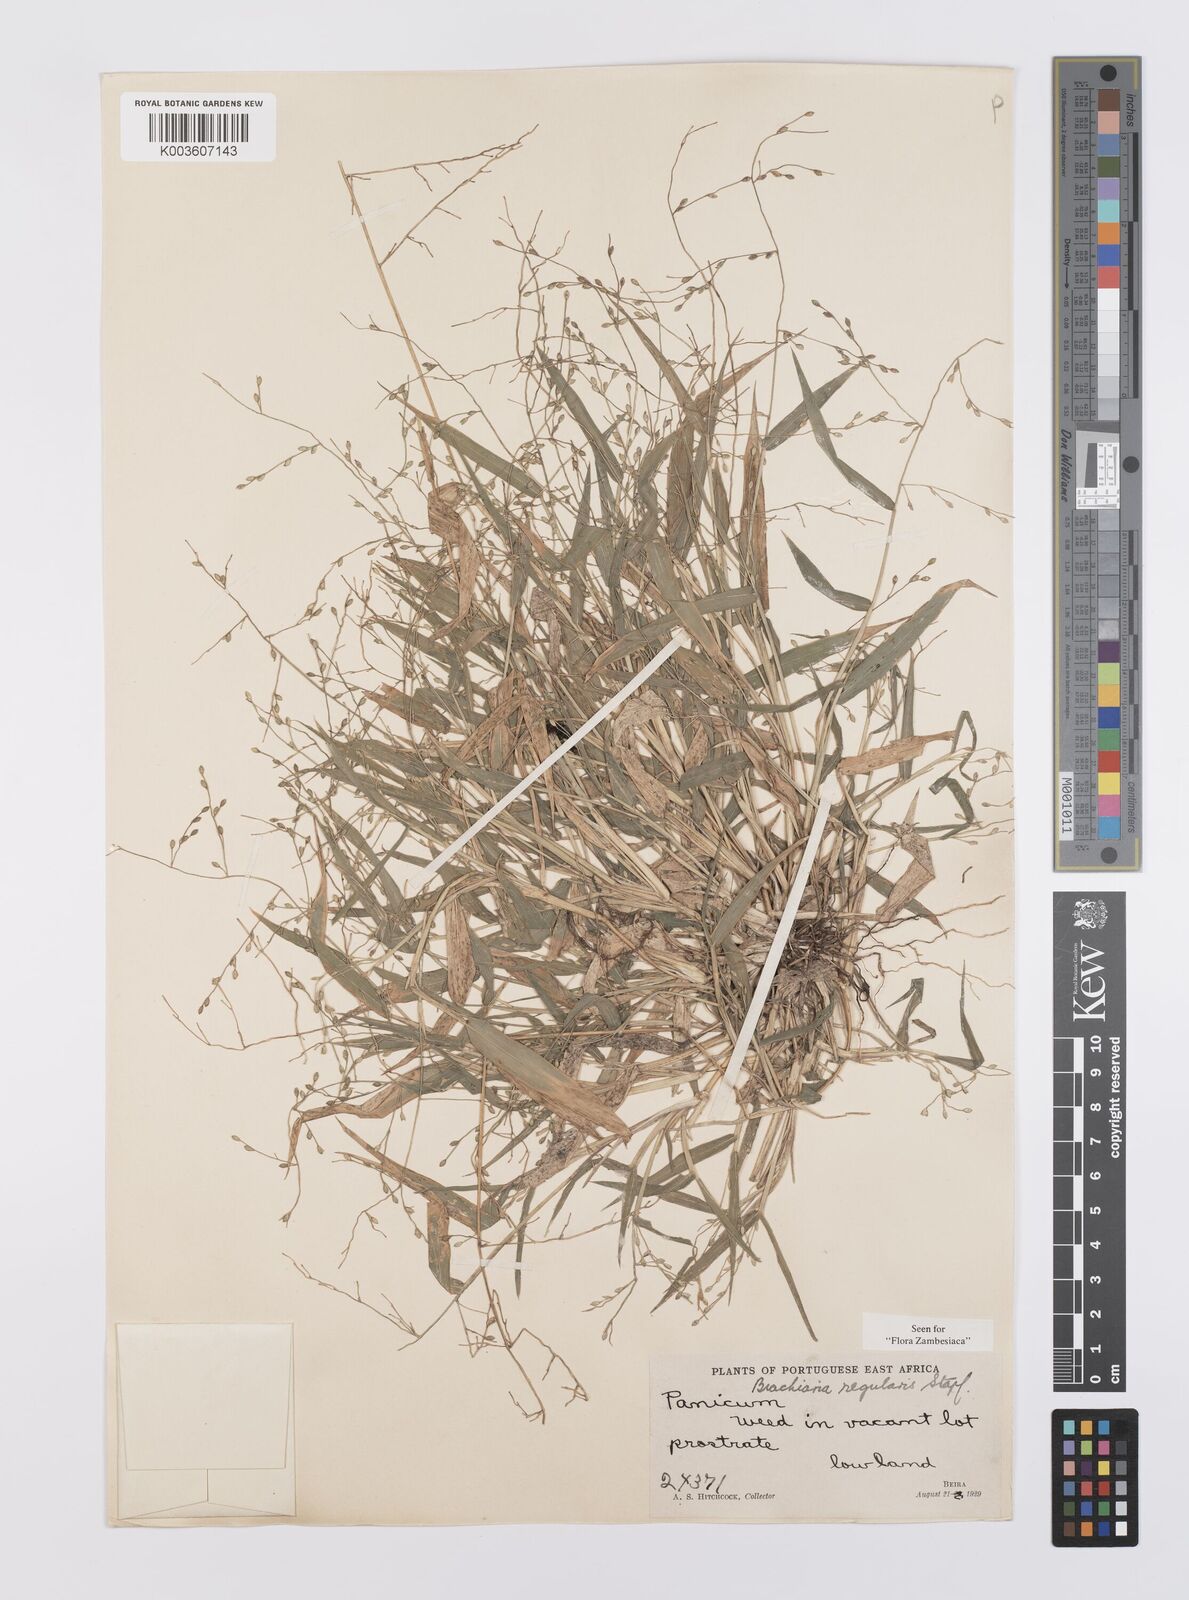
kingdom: Plantae
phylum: Tracheophyta
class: Liliopsida
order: Poales
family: Poaceae
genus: Urochloa
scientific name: Urochloa deflexa
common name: Guinea millet
